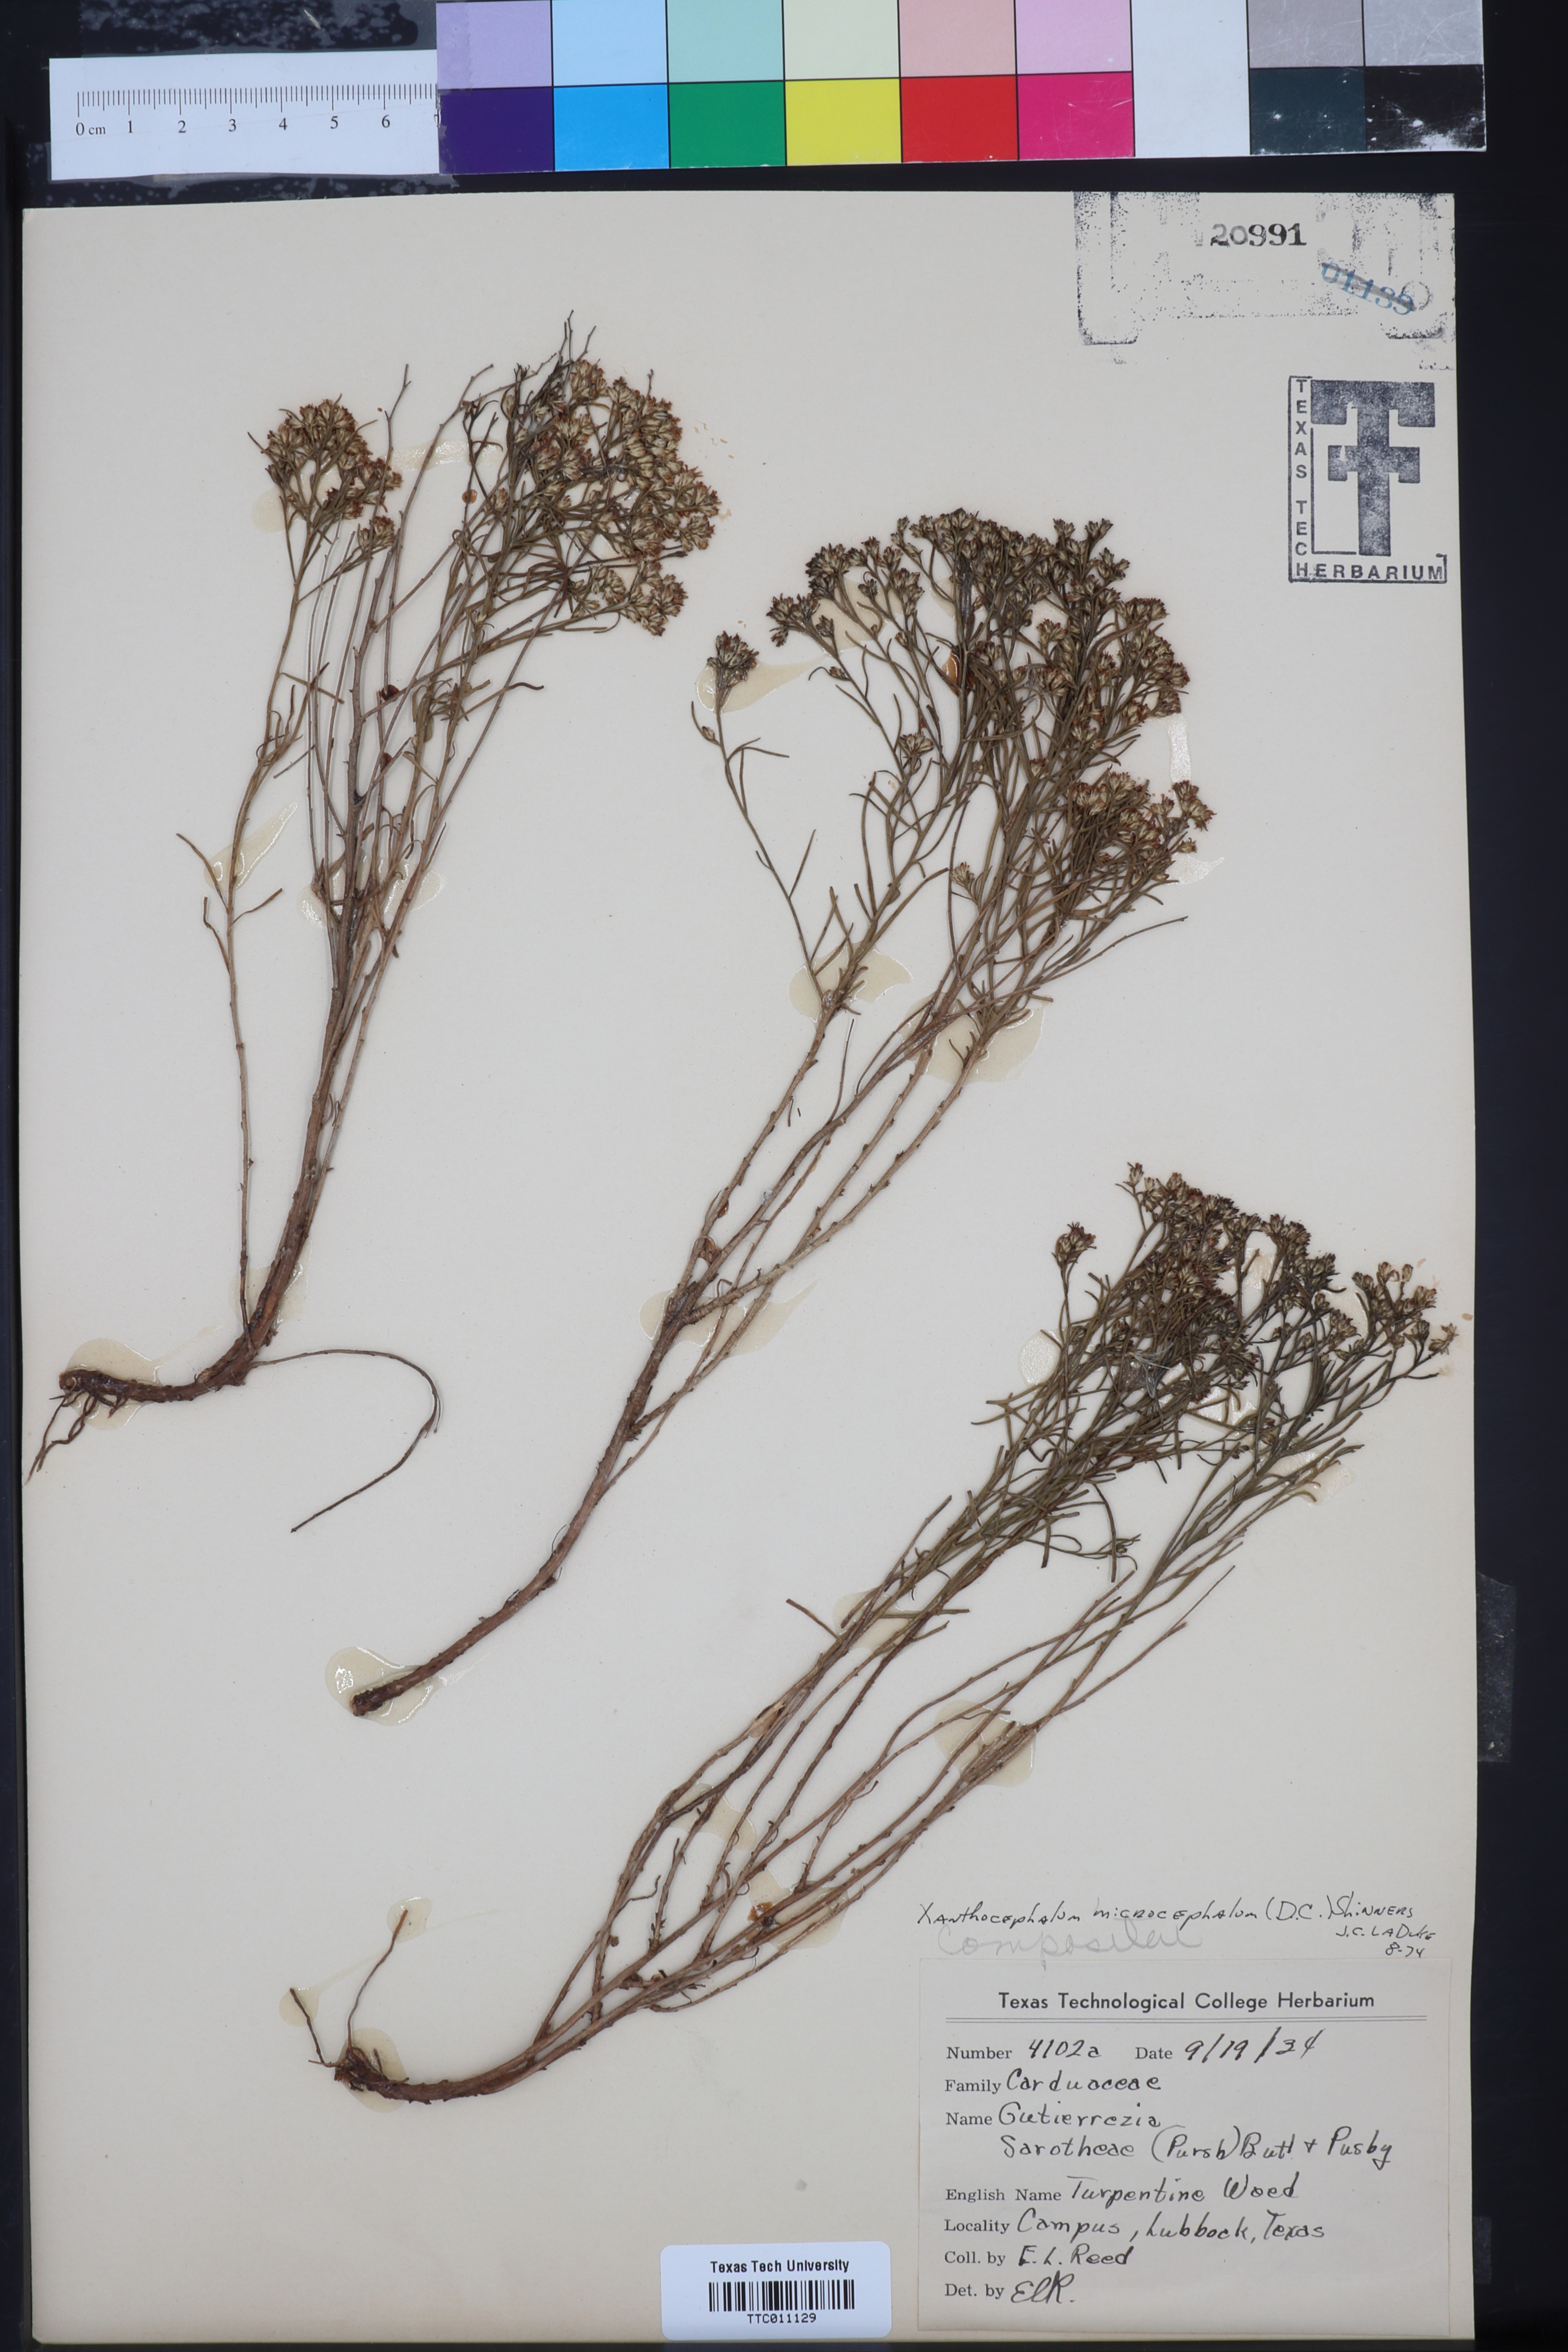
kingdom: Plantae
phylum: Tracheophyta
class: Magnoliopsida
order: Asterales
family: Asteraceae
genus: Gutierrezia
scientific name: Gutierrezia microcephala
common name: Thread snakeweed
